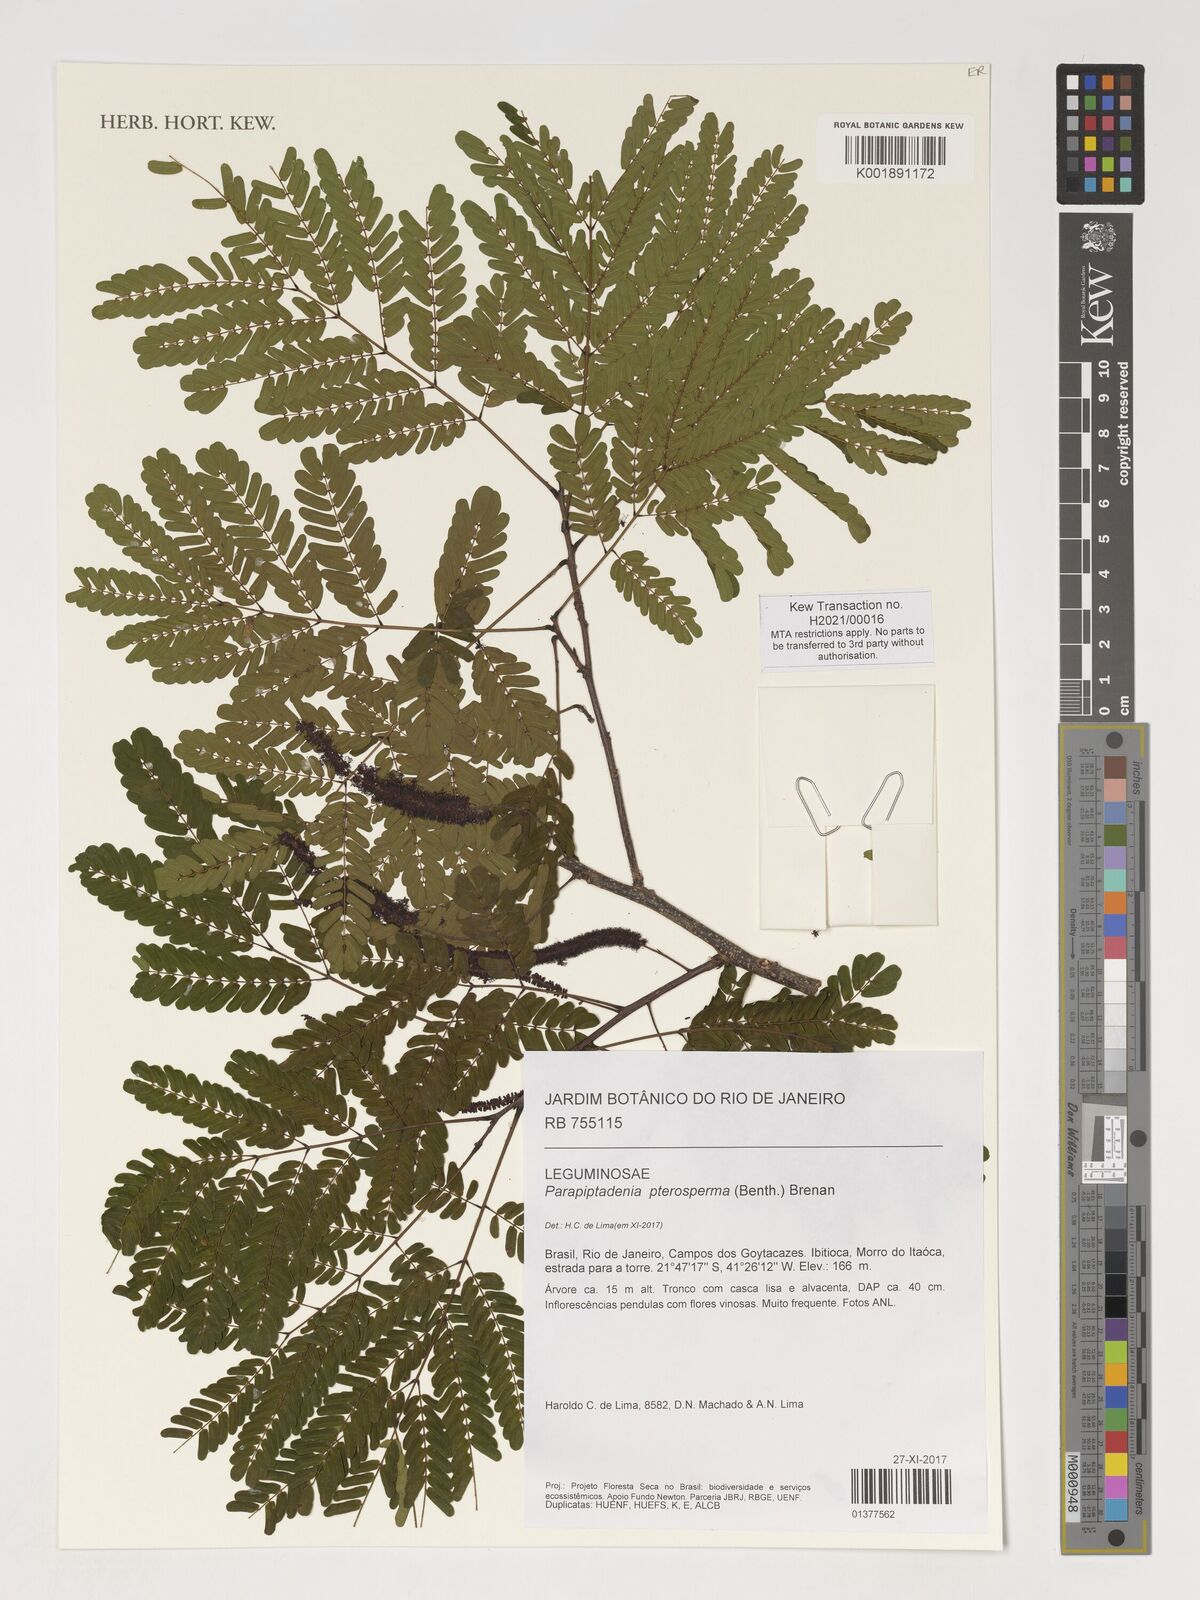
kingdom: Plantae
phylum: Tracheophyta
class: Magnoliopsida
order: Fabales
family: Fabaceae
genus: Parapiptadenia
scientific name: Parapiptadenia pterosperma
